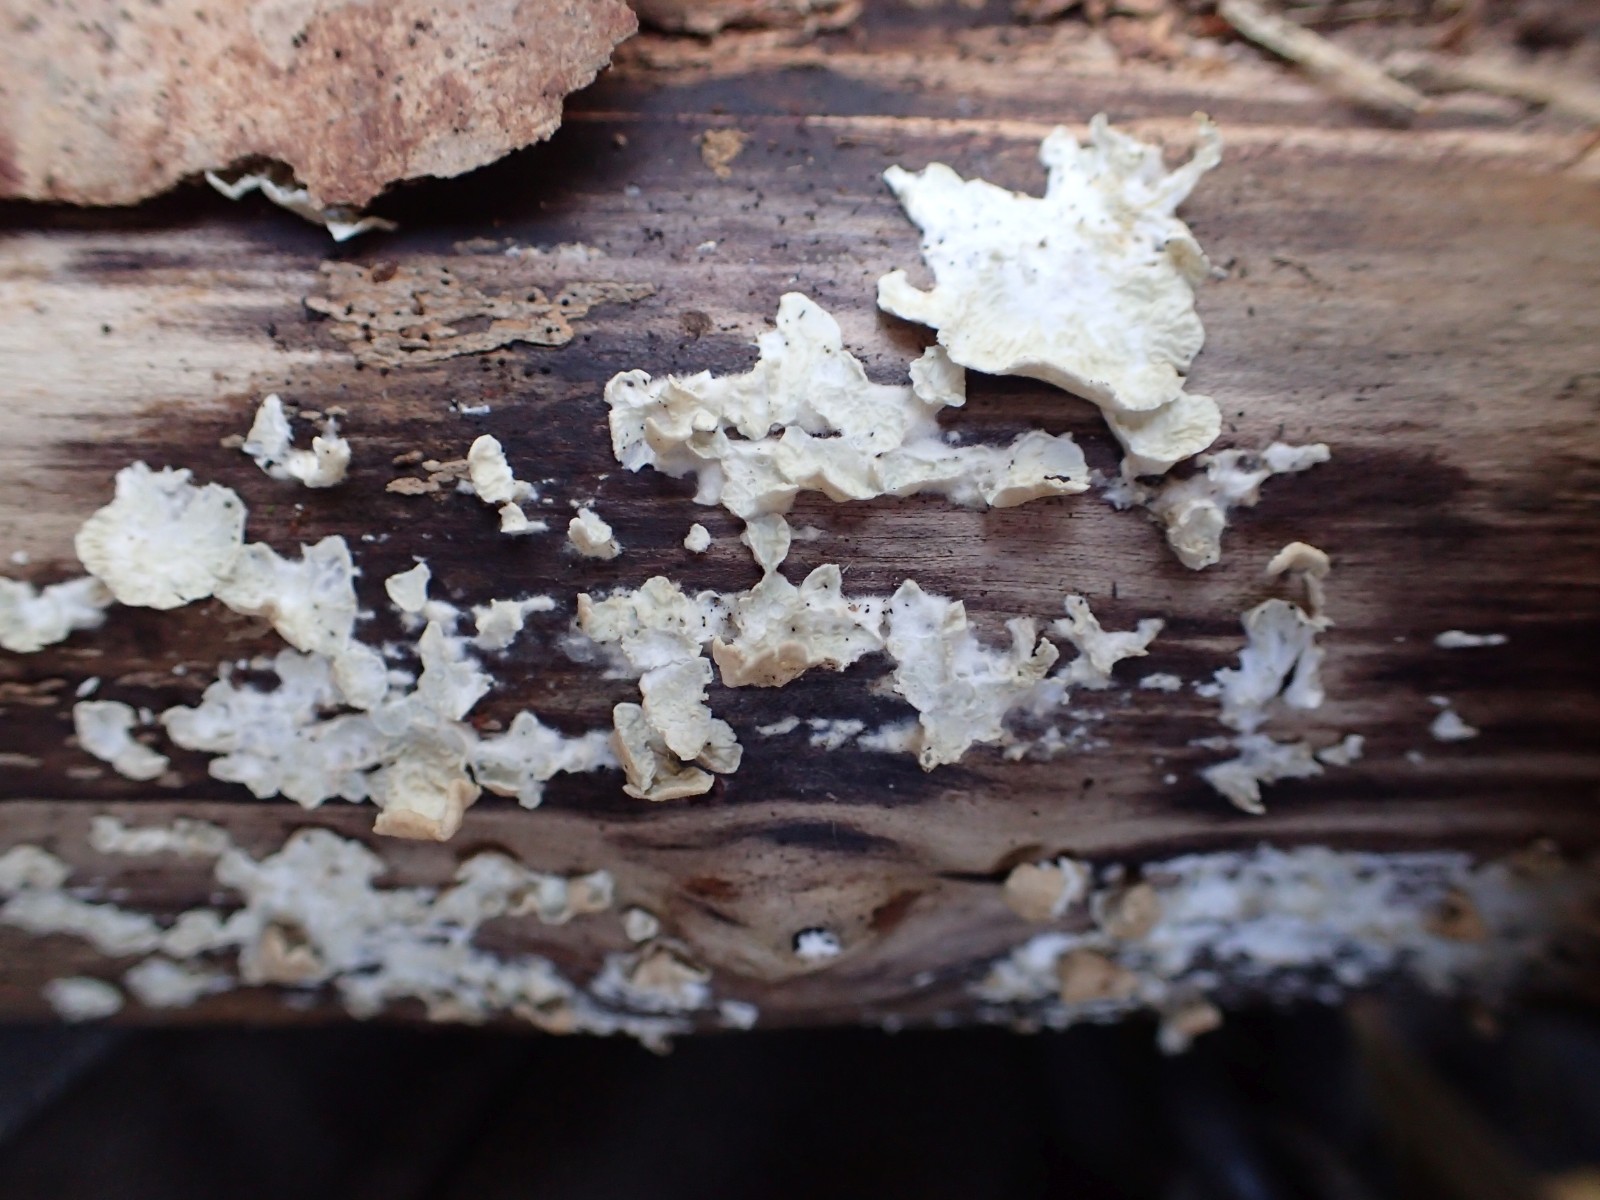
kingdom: Fungi
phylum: Basidiomycota
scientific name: Basidiomycota
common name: basidiesvampe
